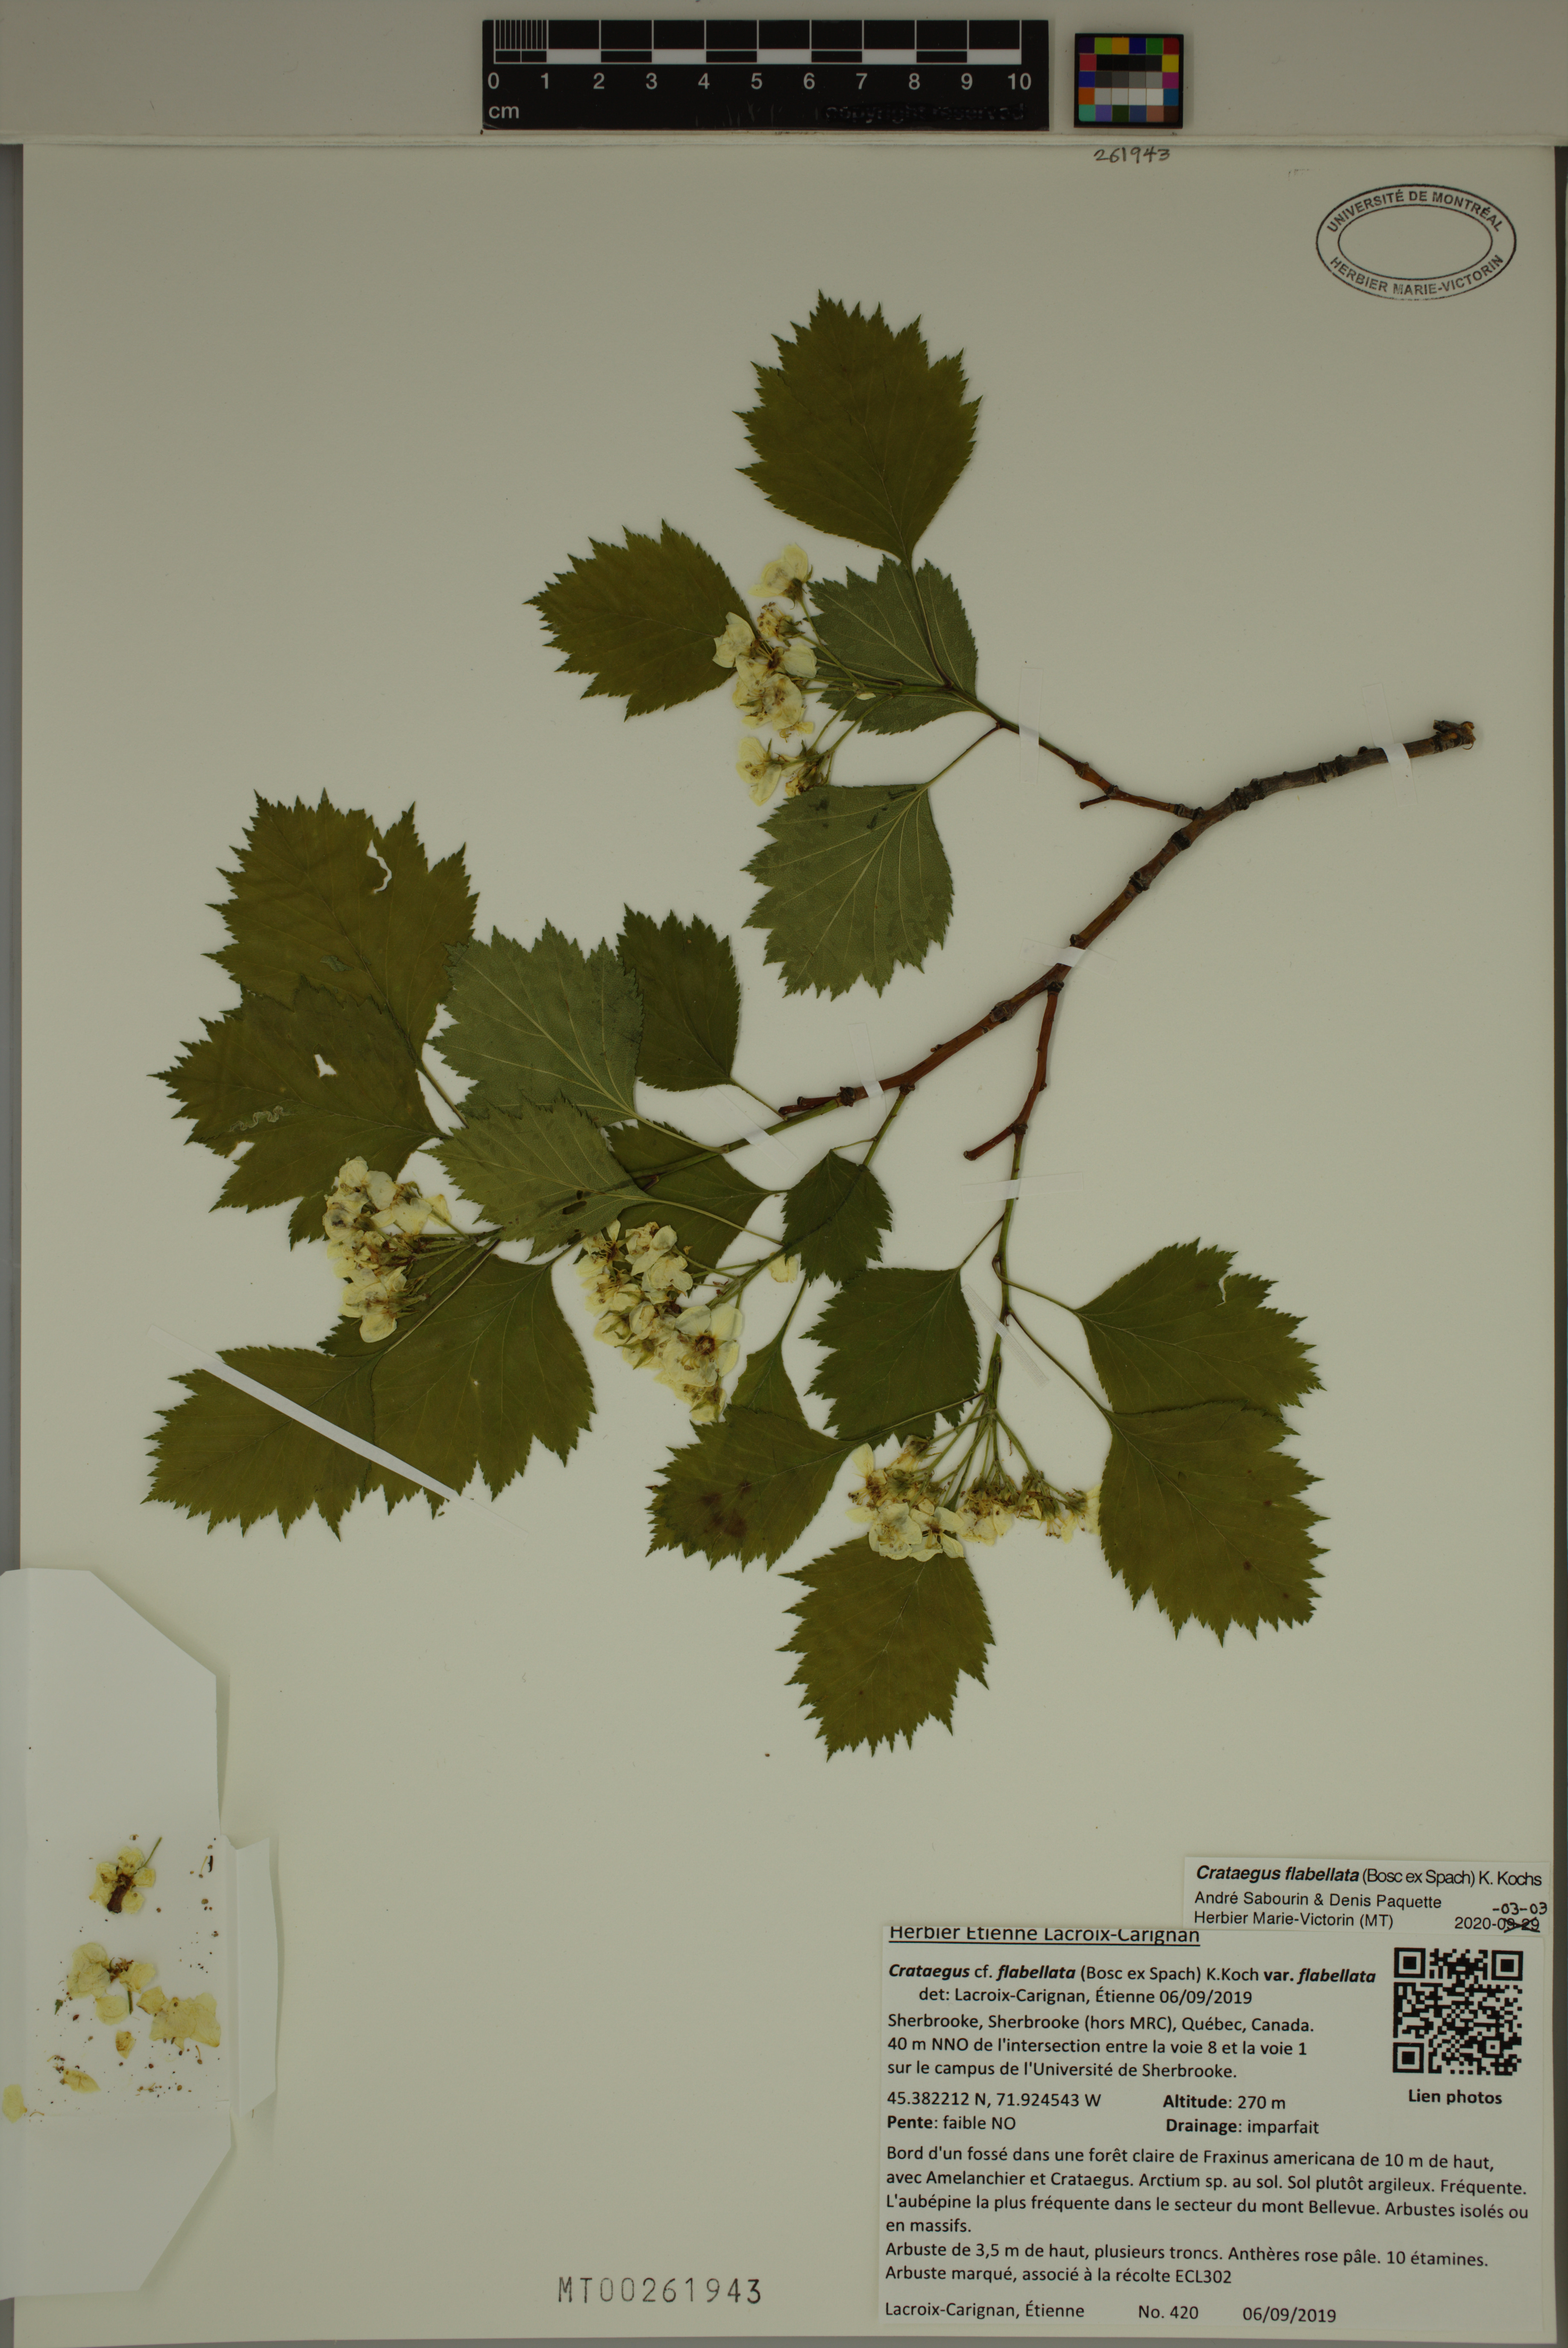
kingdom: Plantae
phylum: Tracheophyta
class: Magnoliopsida
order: Rosales
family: Rosaceae
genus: Crataegus
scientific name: Crataegus flabellata
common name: Bosc's hawthorn
